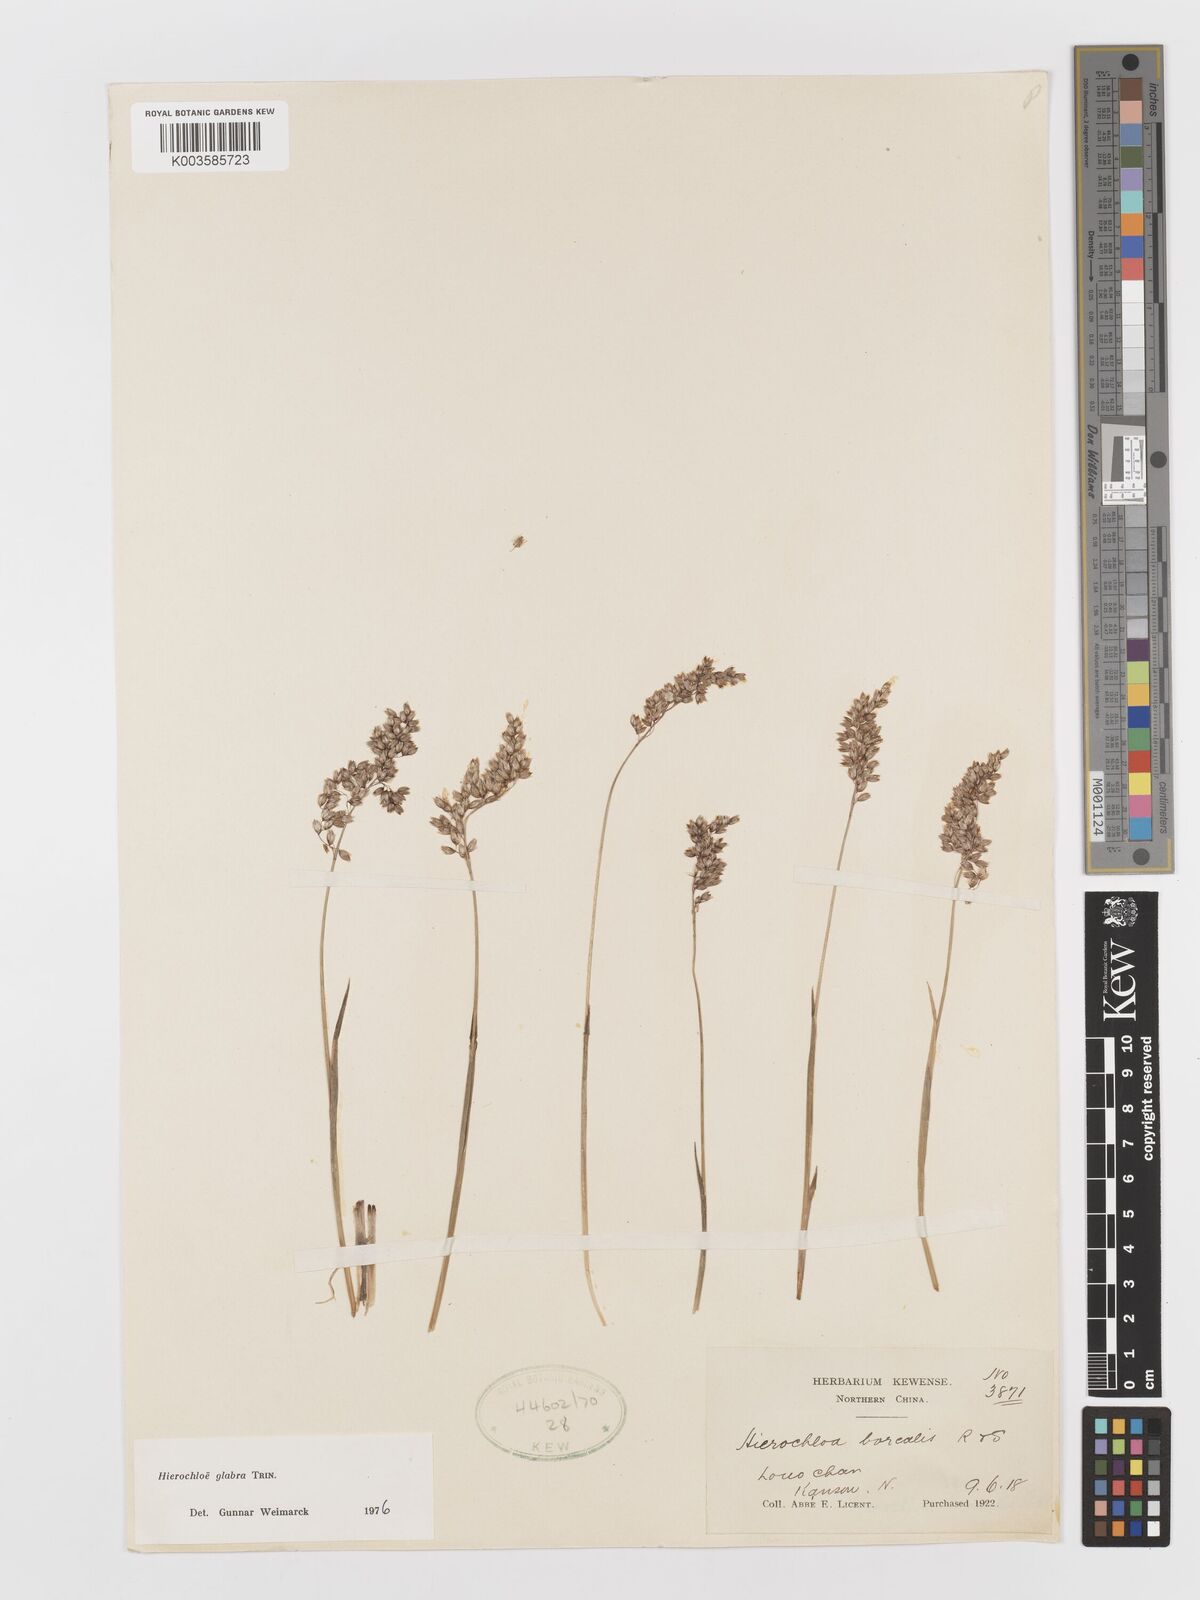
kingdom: Plantae
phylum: Tracheophyta
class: Liliopsida
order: Poales
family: Poaceae
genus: Anthoxanthum
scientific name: Anthoxanthum glabrum
